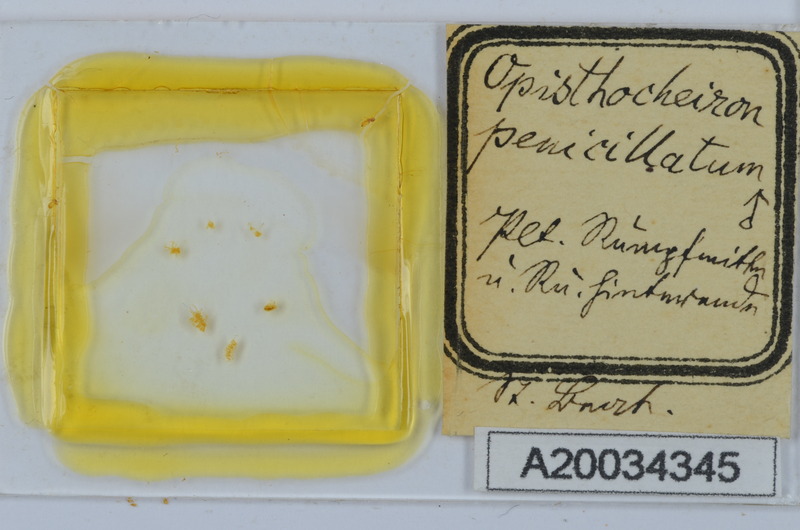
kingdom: Animalia
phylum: Arthropoda
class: Diplopoda
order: Chordeumatida
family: Opisthocheiridae
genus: Opisthocheiron
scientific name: Opisthocheiron penicillatum
